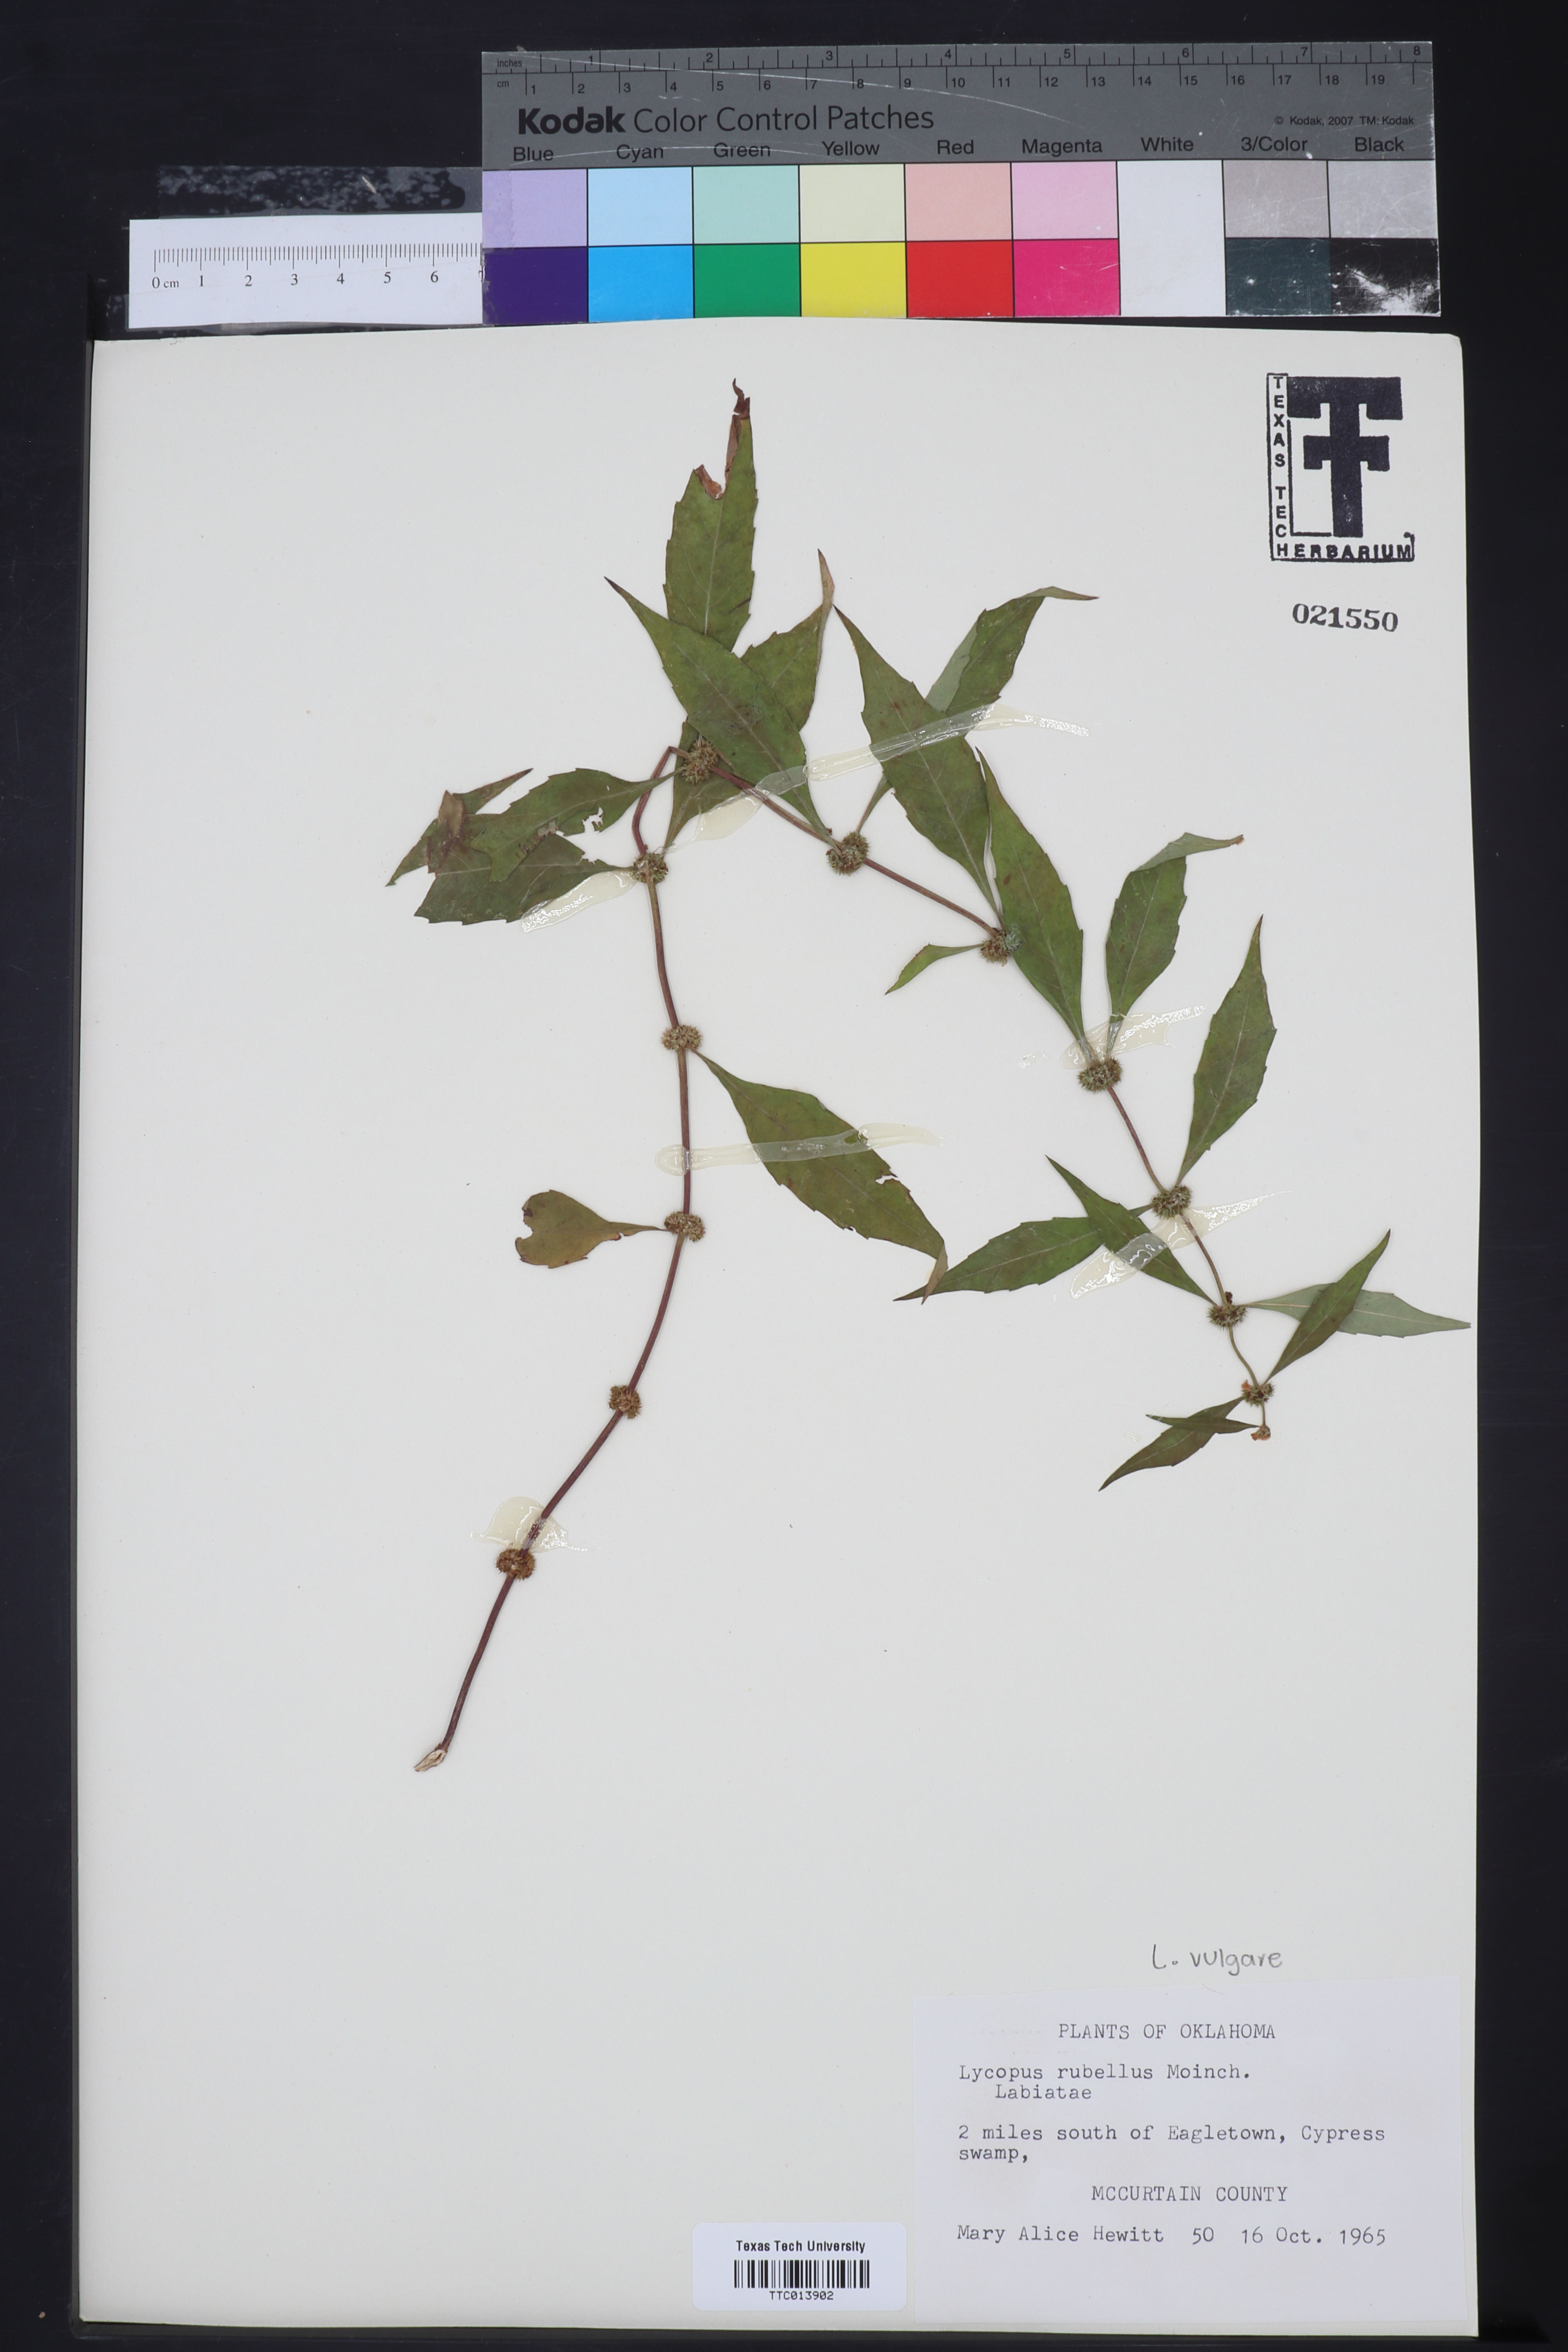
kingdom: Plantae
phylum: Tracheophyta
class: Magnoliopsida
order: Lamiales
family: Lamiaceae
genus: Lycopus
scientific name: Lycopus virginicus
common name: Bugleweed
